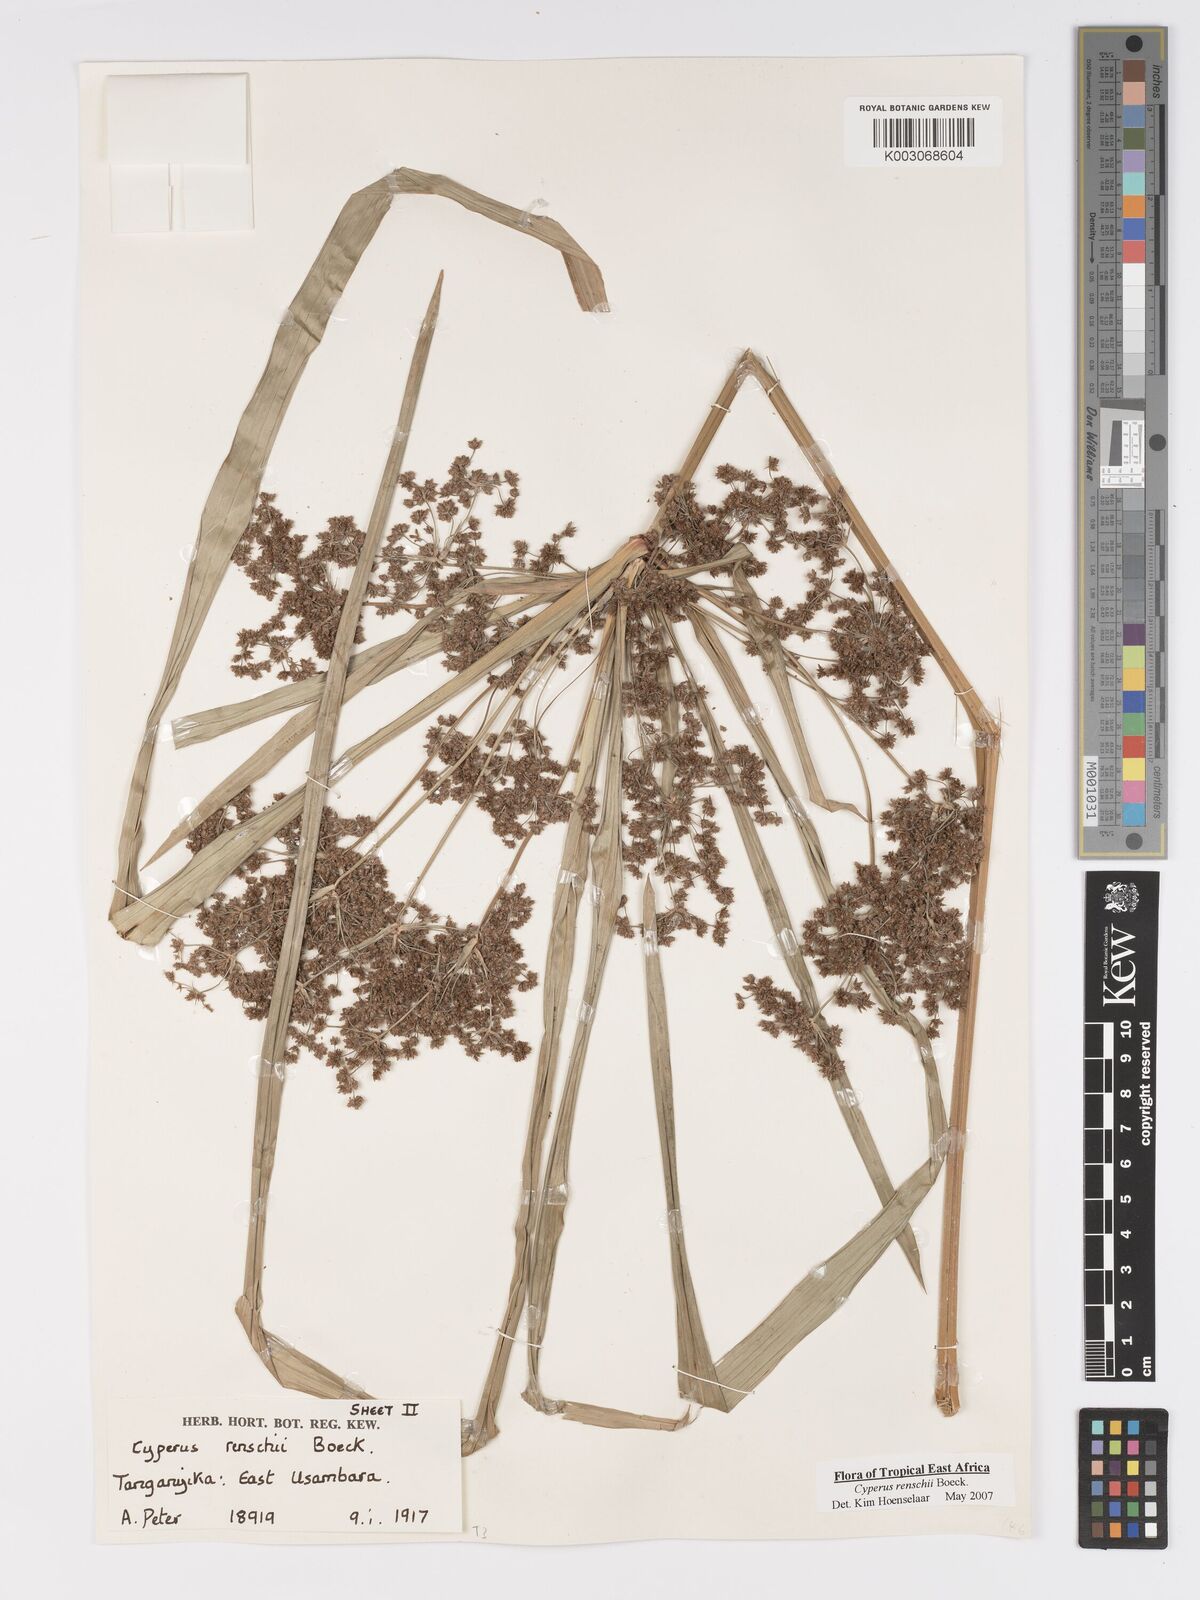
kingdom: Plantae
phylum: Tracheophyta
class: Liliopsida
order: Poales
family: Cyperaceae
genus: Cyperus
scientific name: Cyperus renschii
